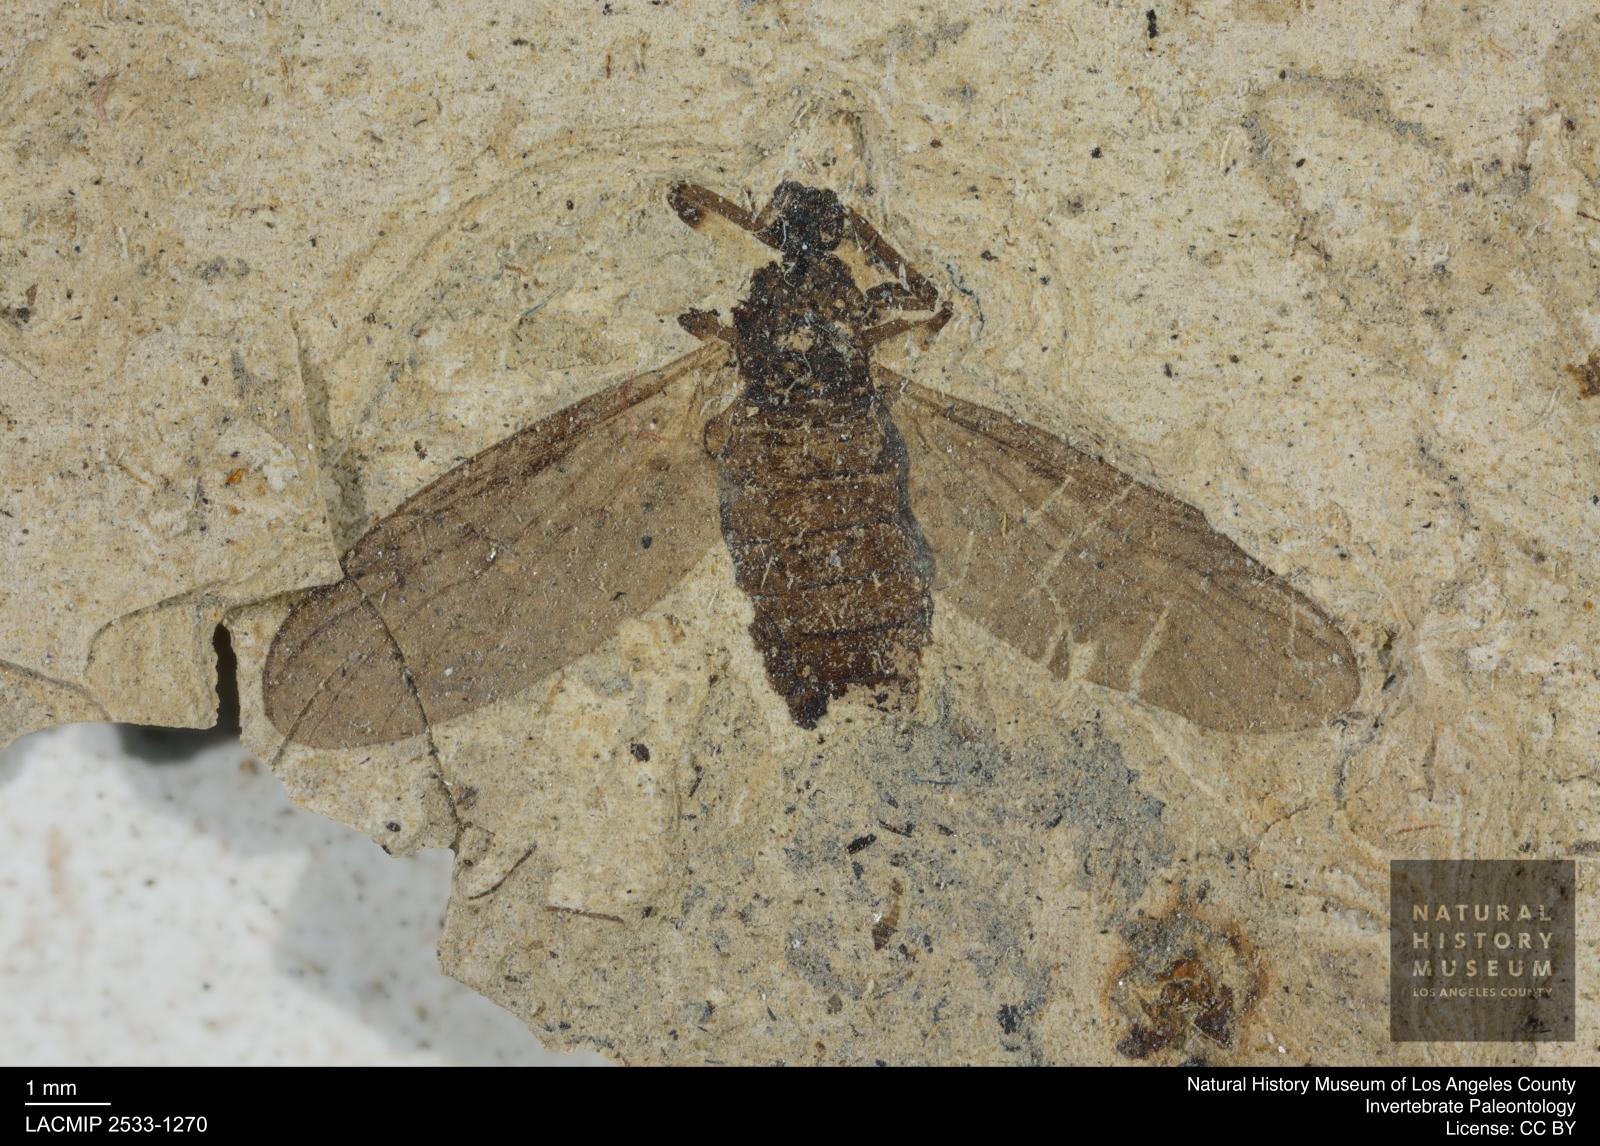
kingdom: Animalia
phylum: Arthropoda
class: Insecta
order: Diptera
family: Bibionidae
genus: Plecia
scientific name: Plecia hypogaea
